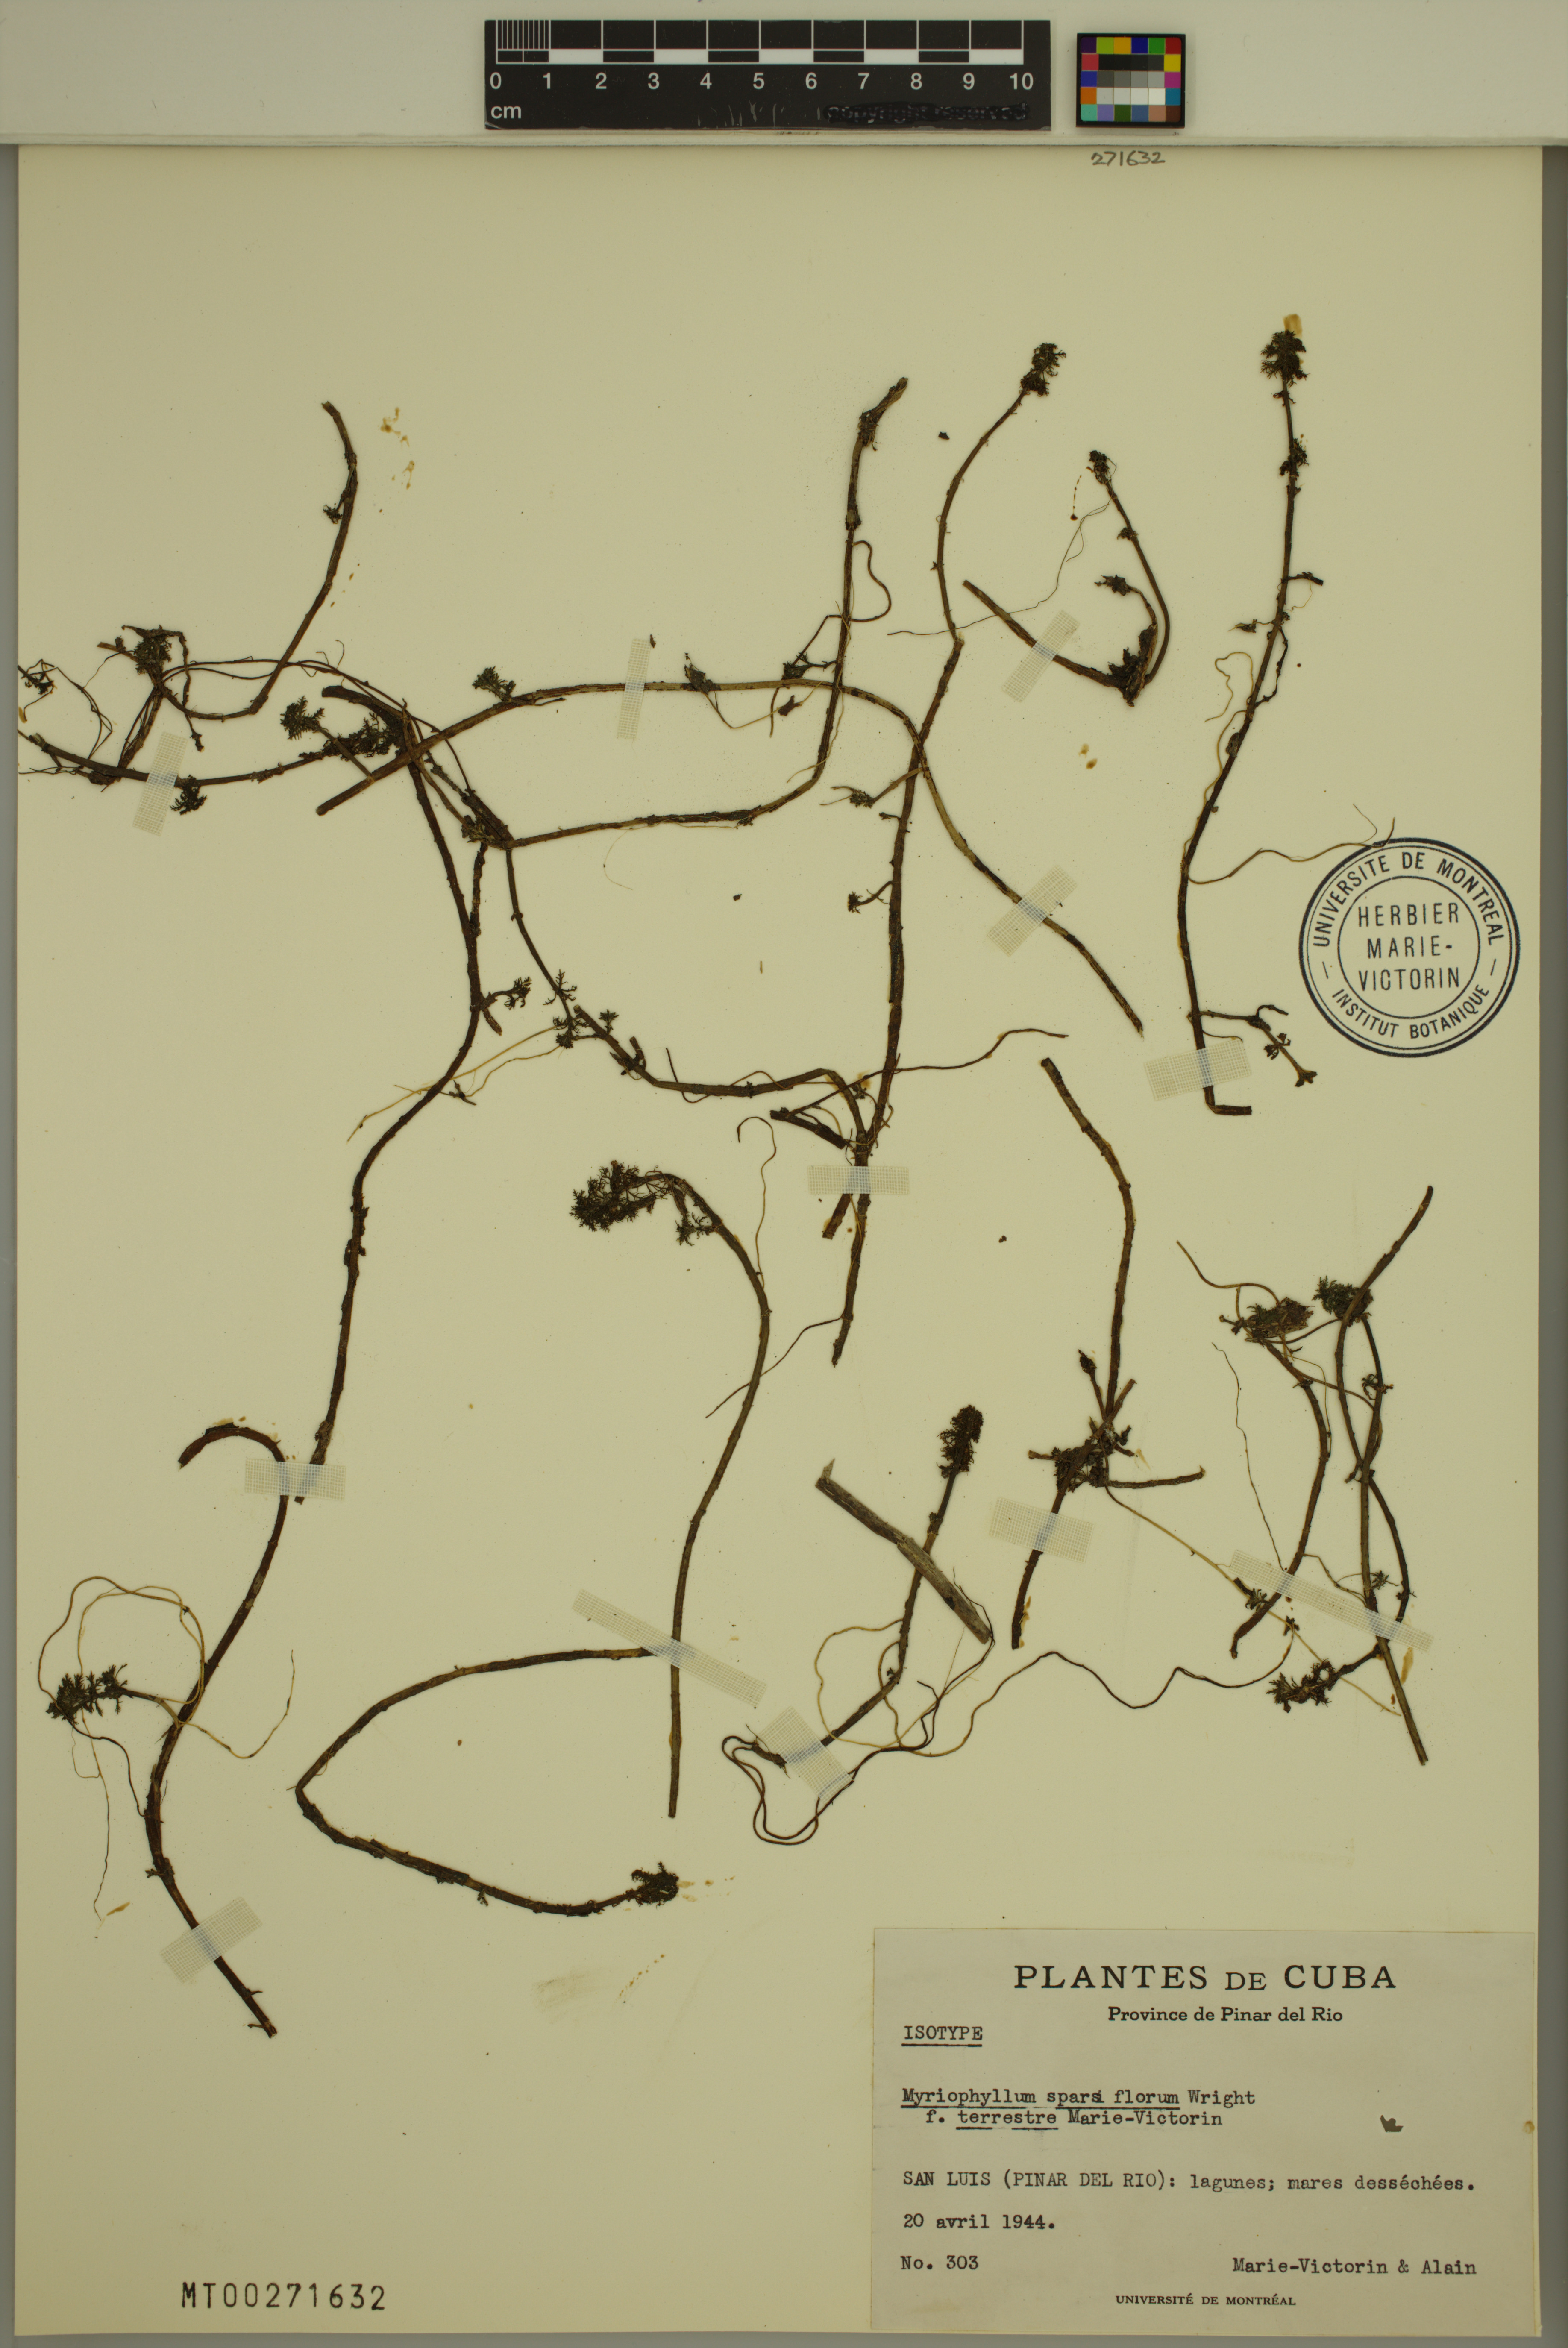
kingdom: Plantae
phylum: Tracheophyta
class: Magnoliopsida
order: Saxifragales
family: Haloragaceae
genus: Myriophyllum
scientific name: Myriophyllum sparsiflorum
